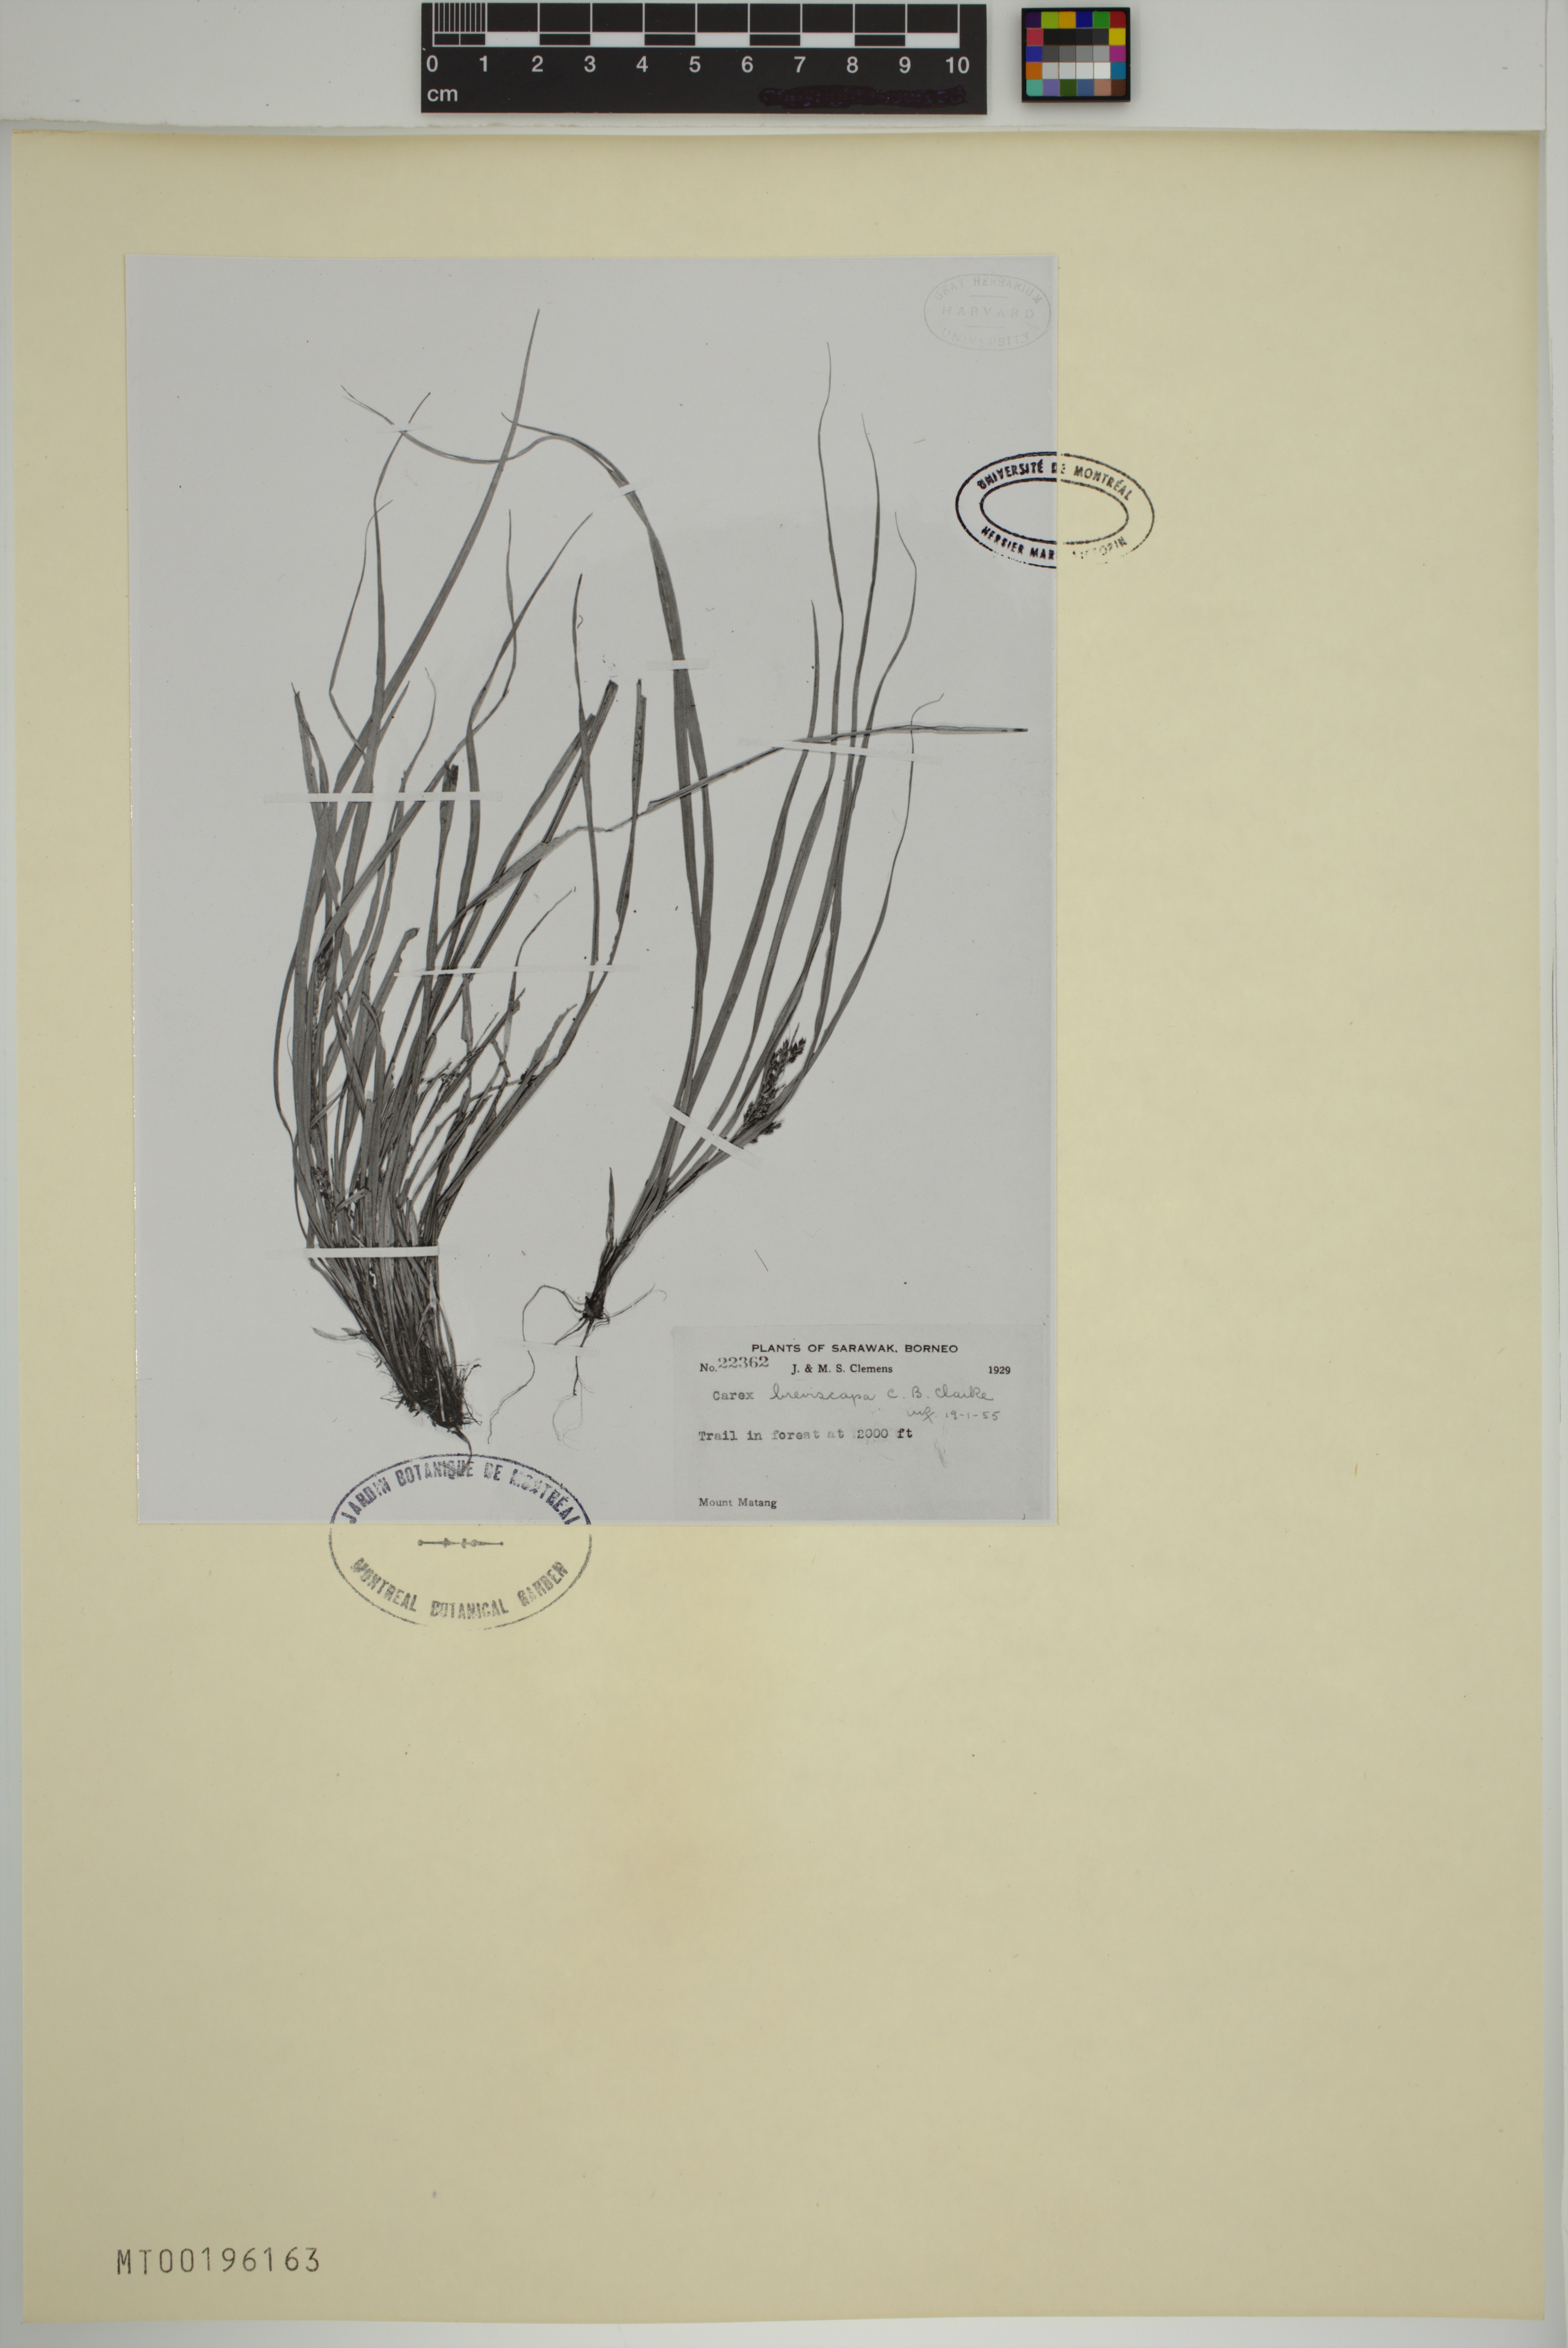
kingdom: Plantae
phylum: Tracheophyta
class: Liliopsida
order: Poales
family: Cyperaceae
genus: Carex
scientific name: Carex breviscapa
